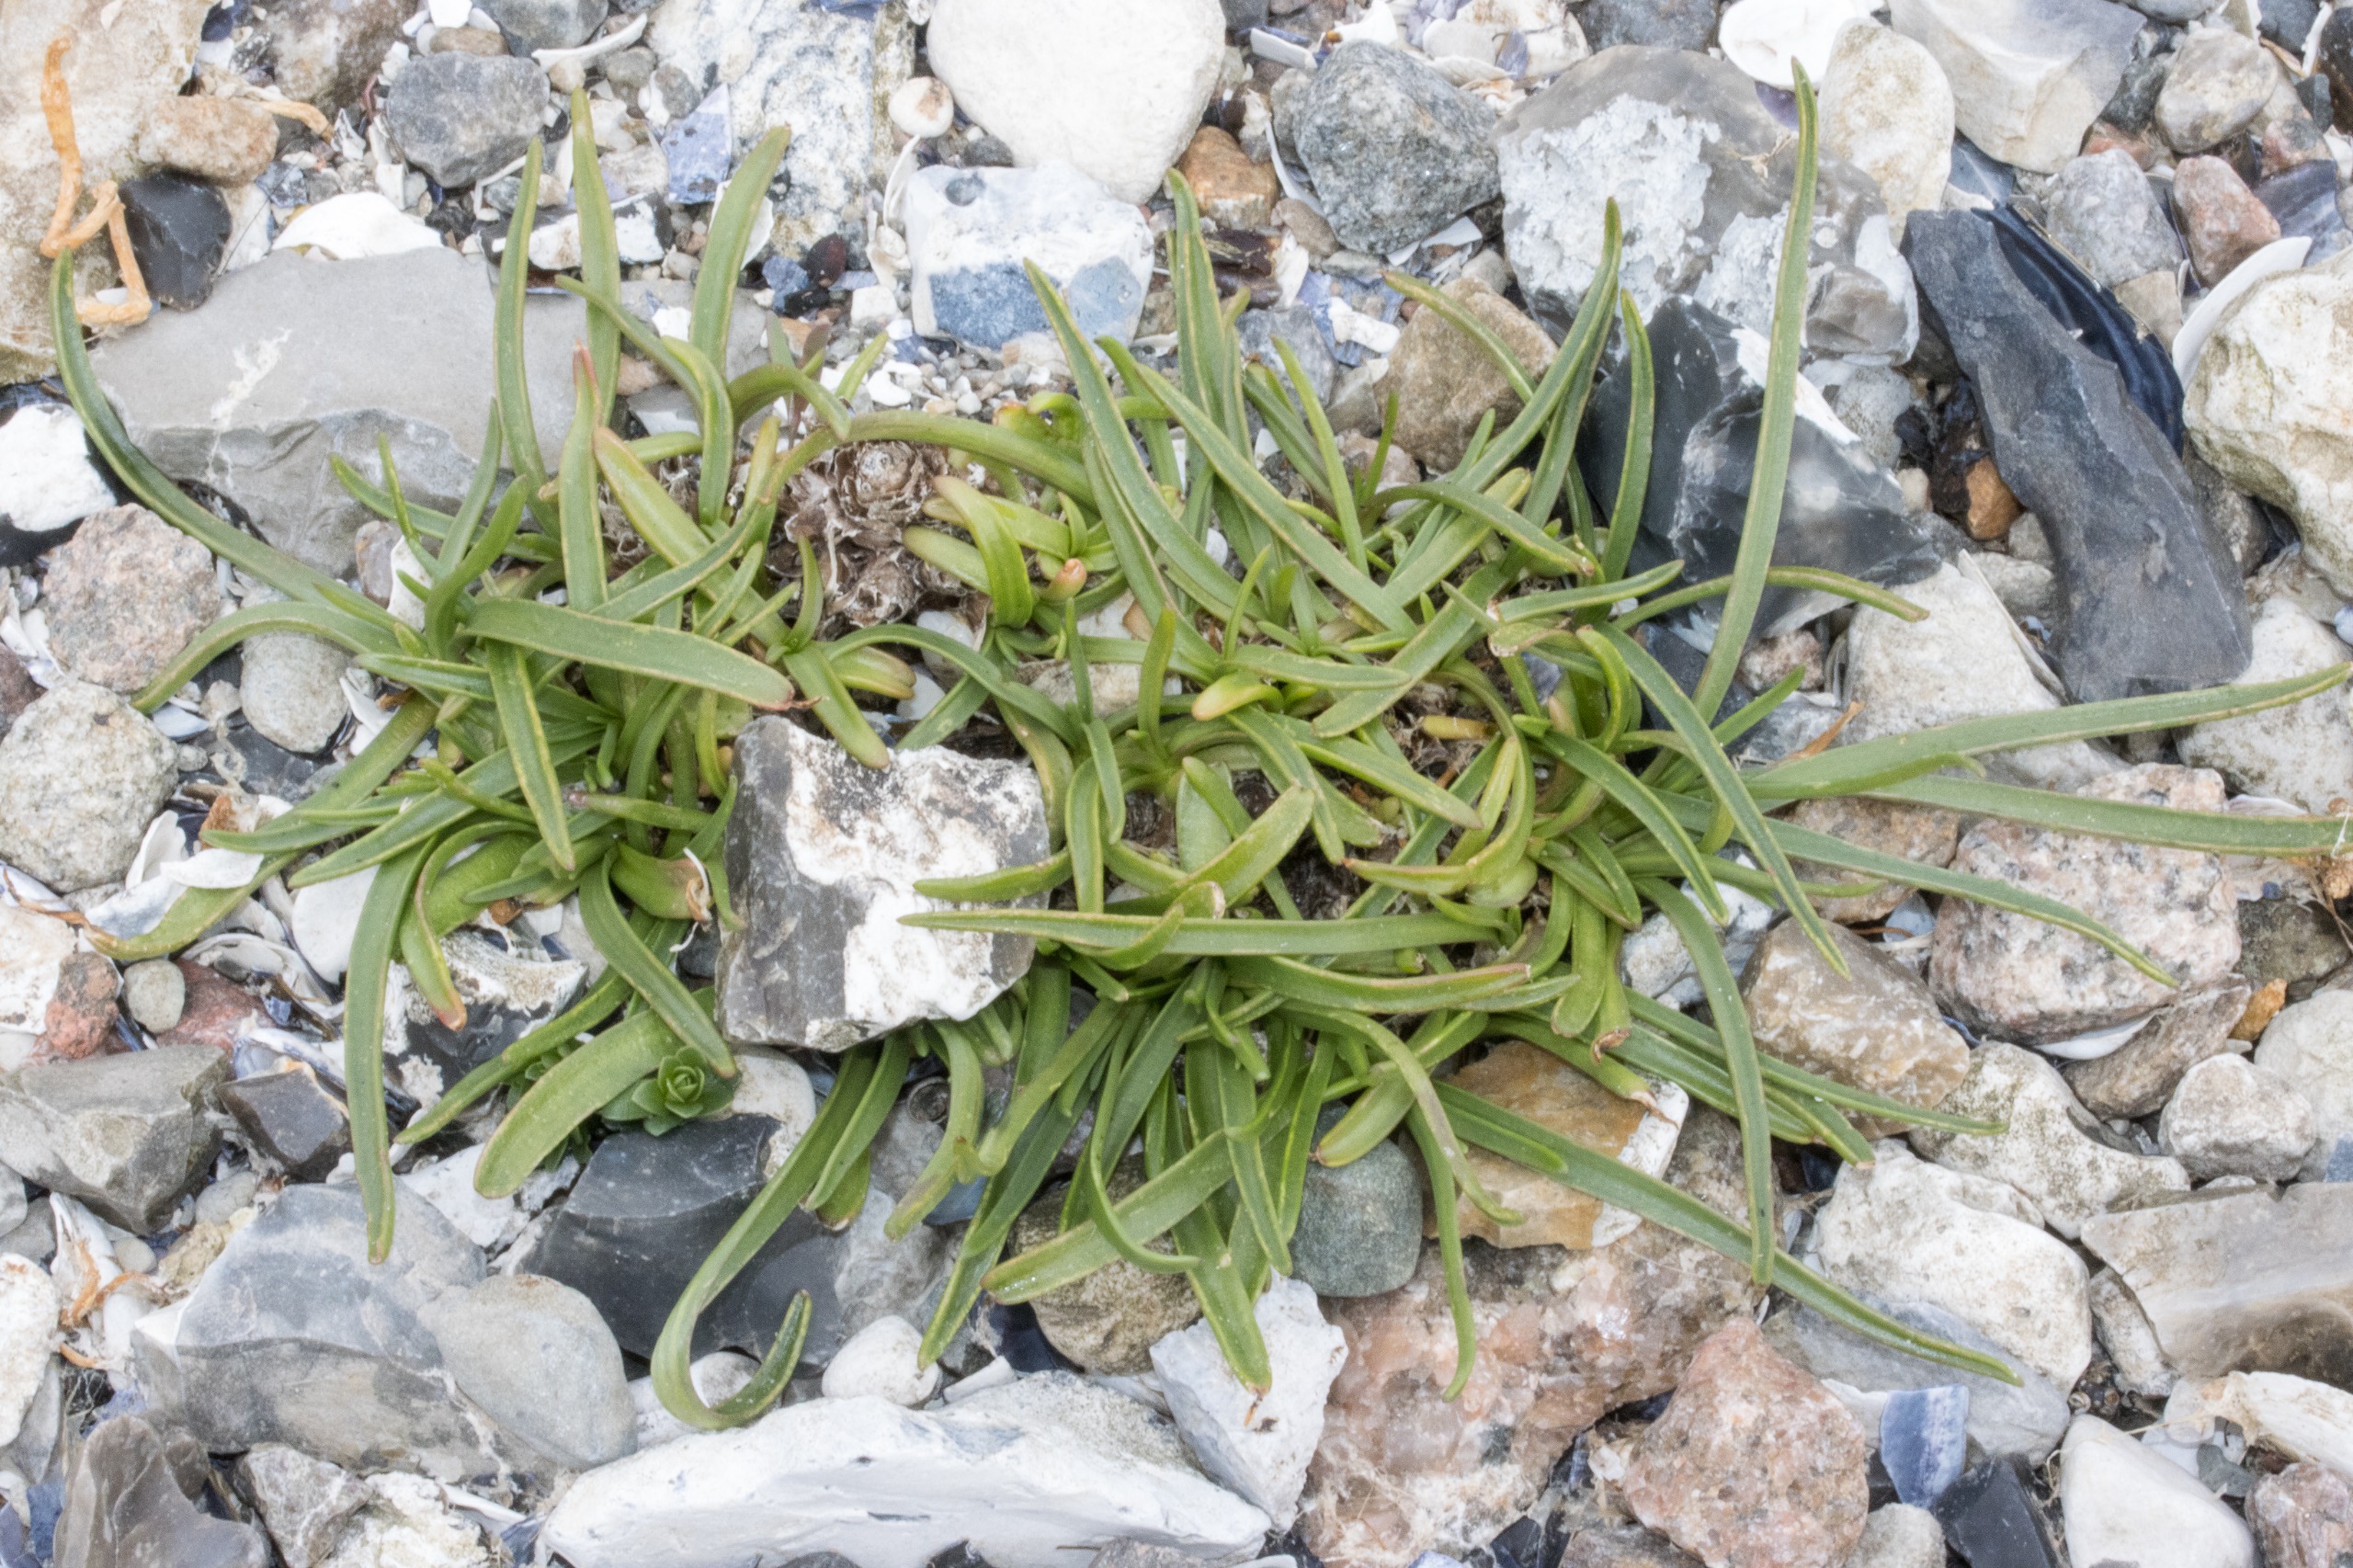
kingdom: Plantae
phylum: Tracheophyta
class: Magnoliopsida
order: Lamiales
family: Plantaginaceae
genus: Plantago
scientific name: Plantago maritima
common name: Strand-vejbred
